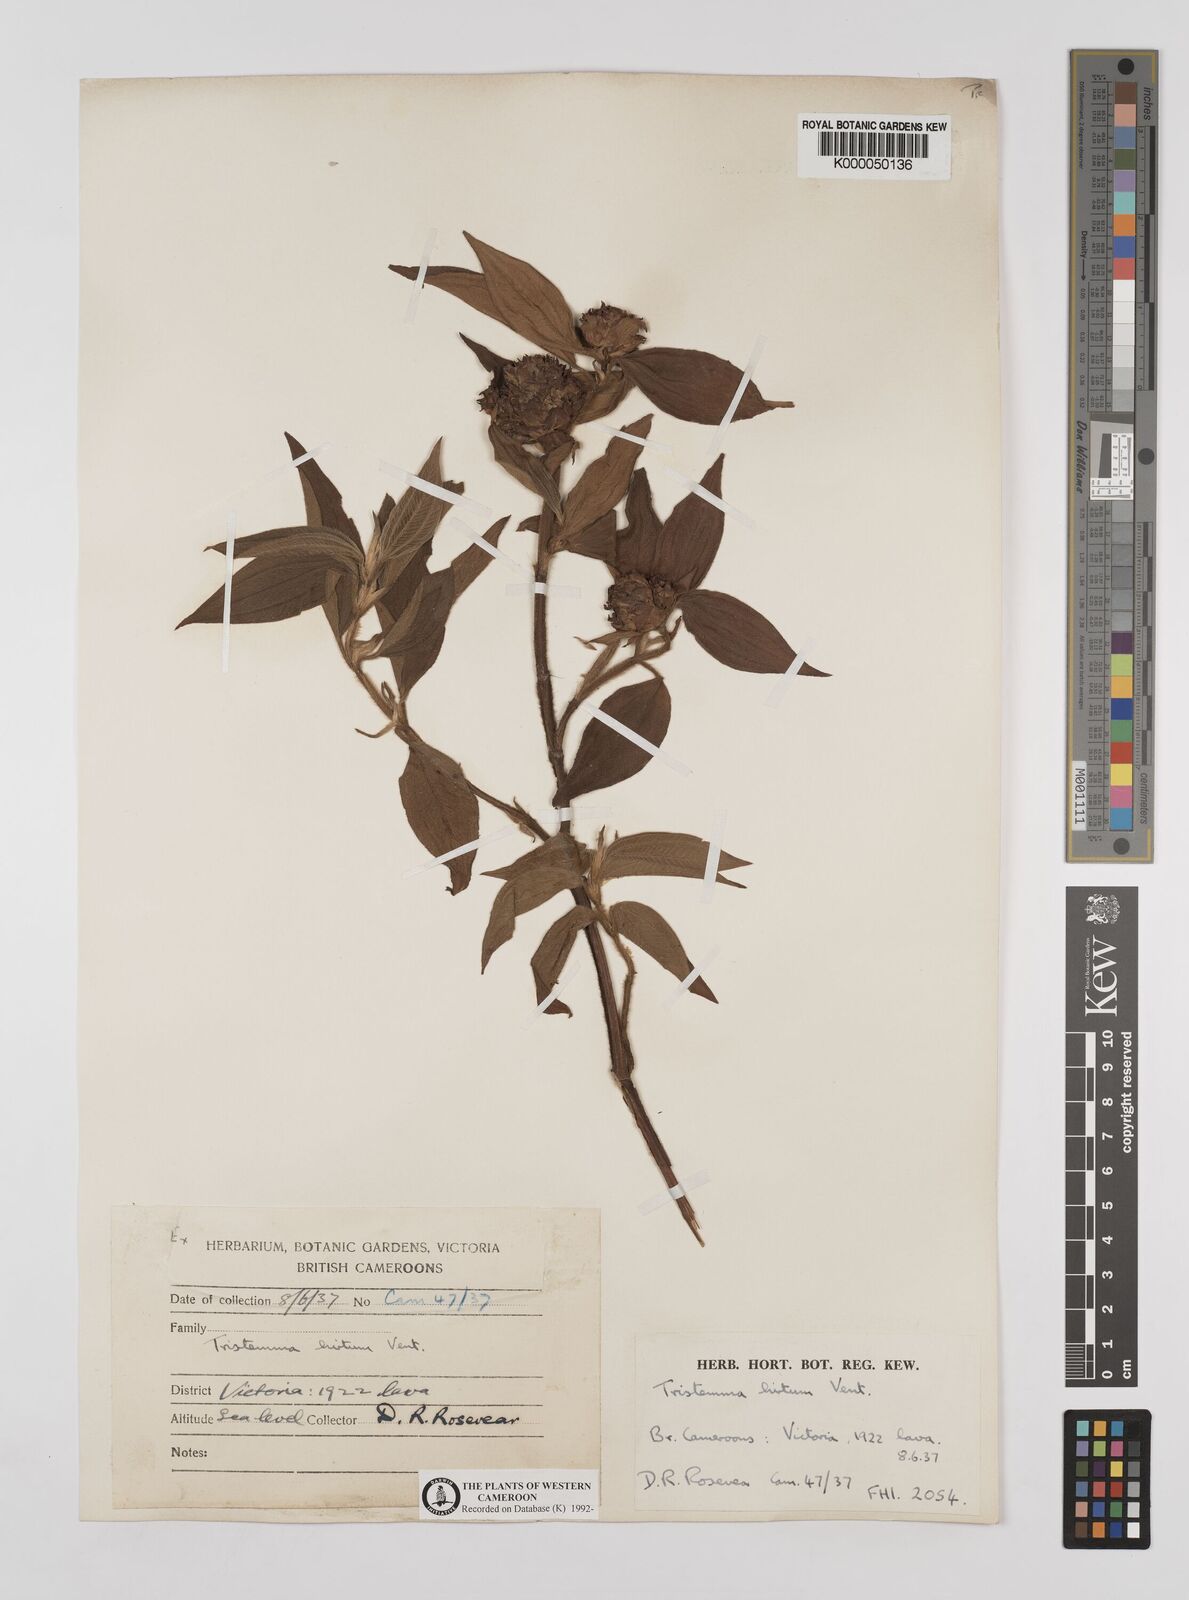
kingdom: Plantae
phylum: Tracheophyta
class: Magnoliopsida
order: Myrtales
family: Melastomataceae
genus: Tristemma
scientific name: Tristemma
